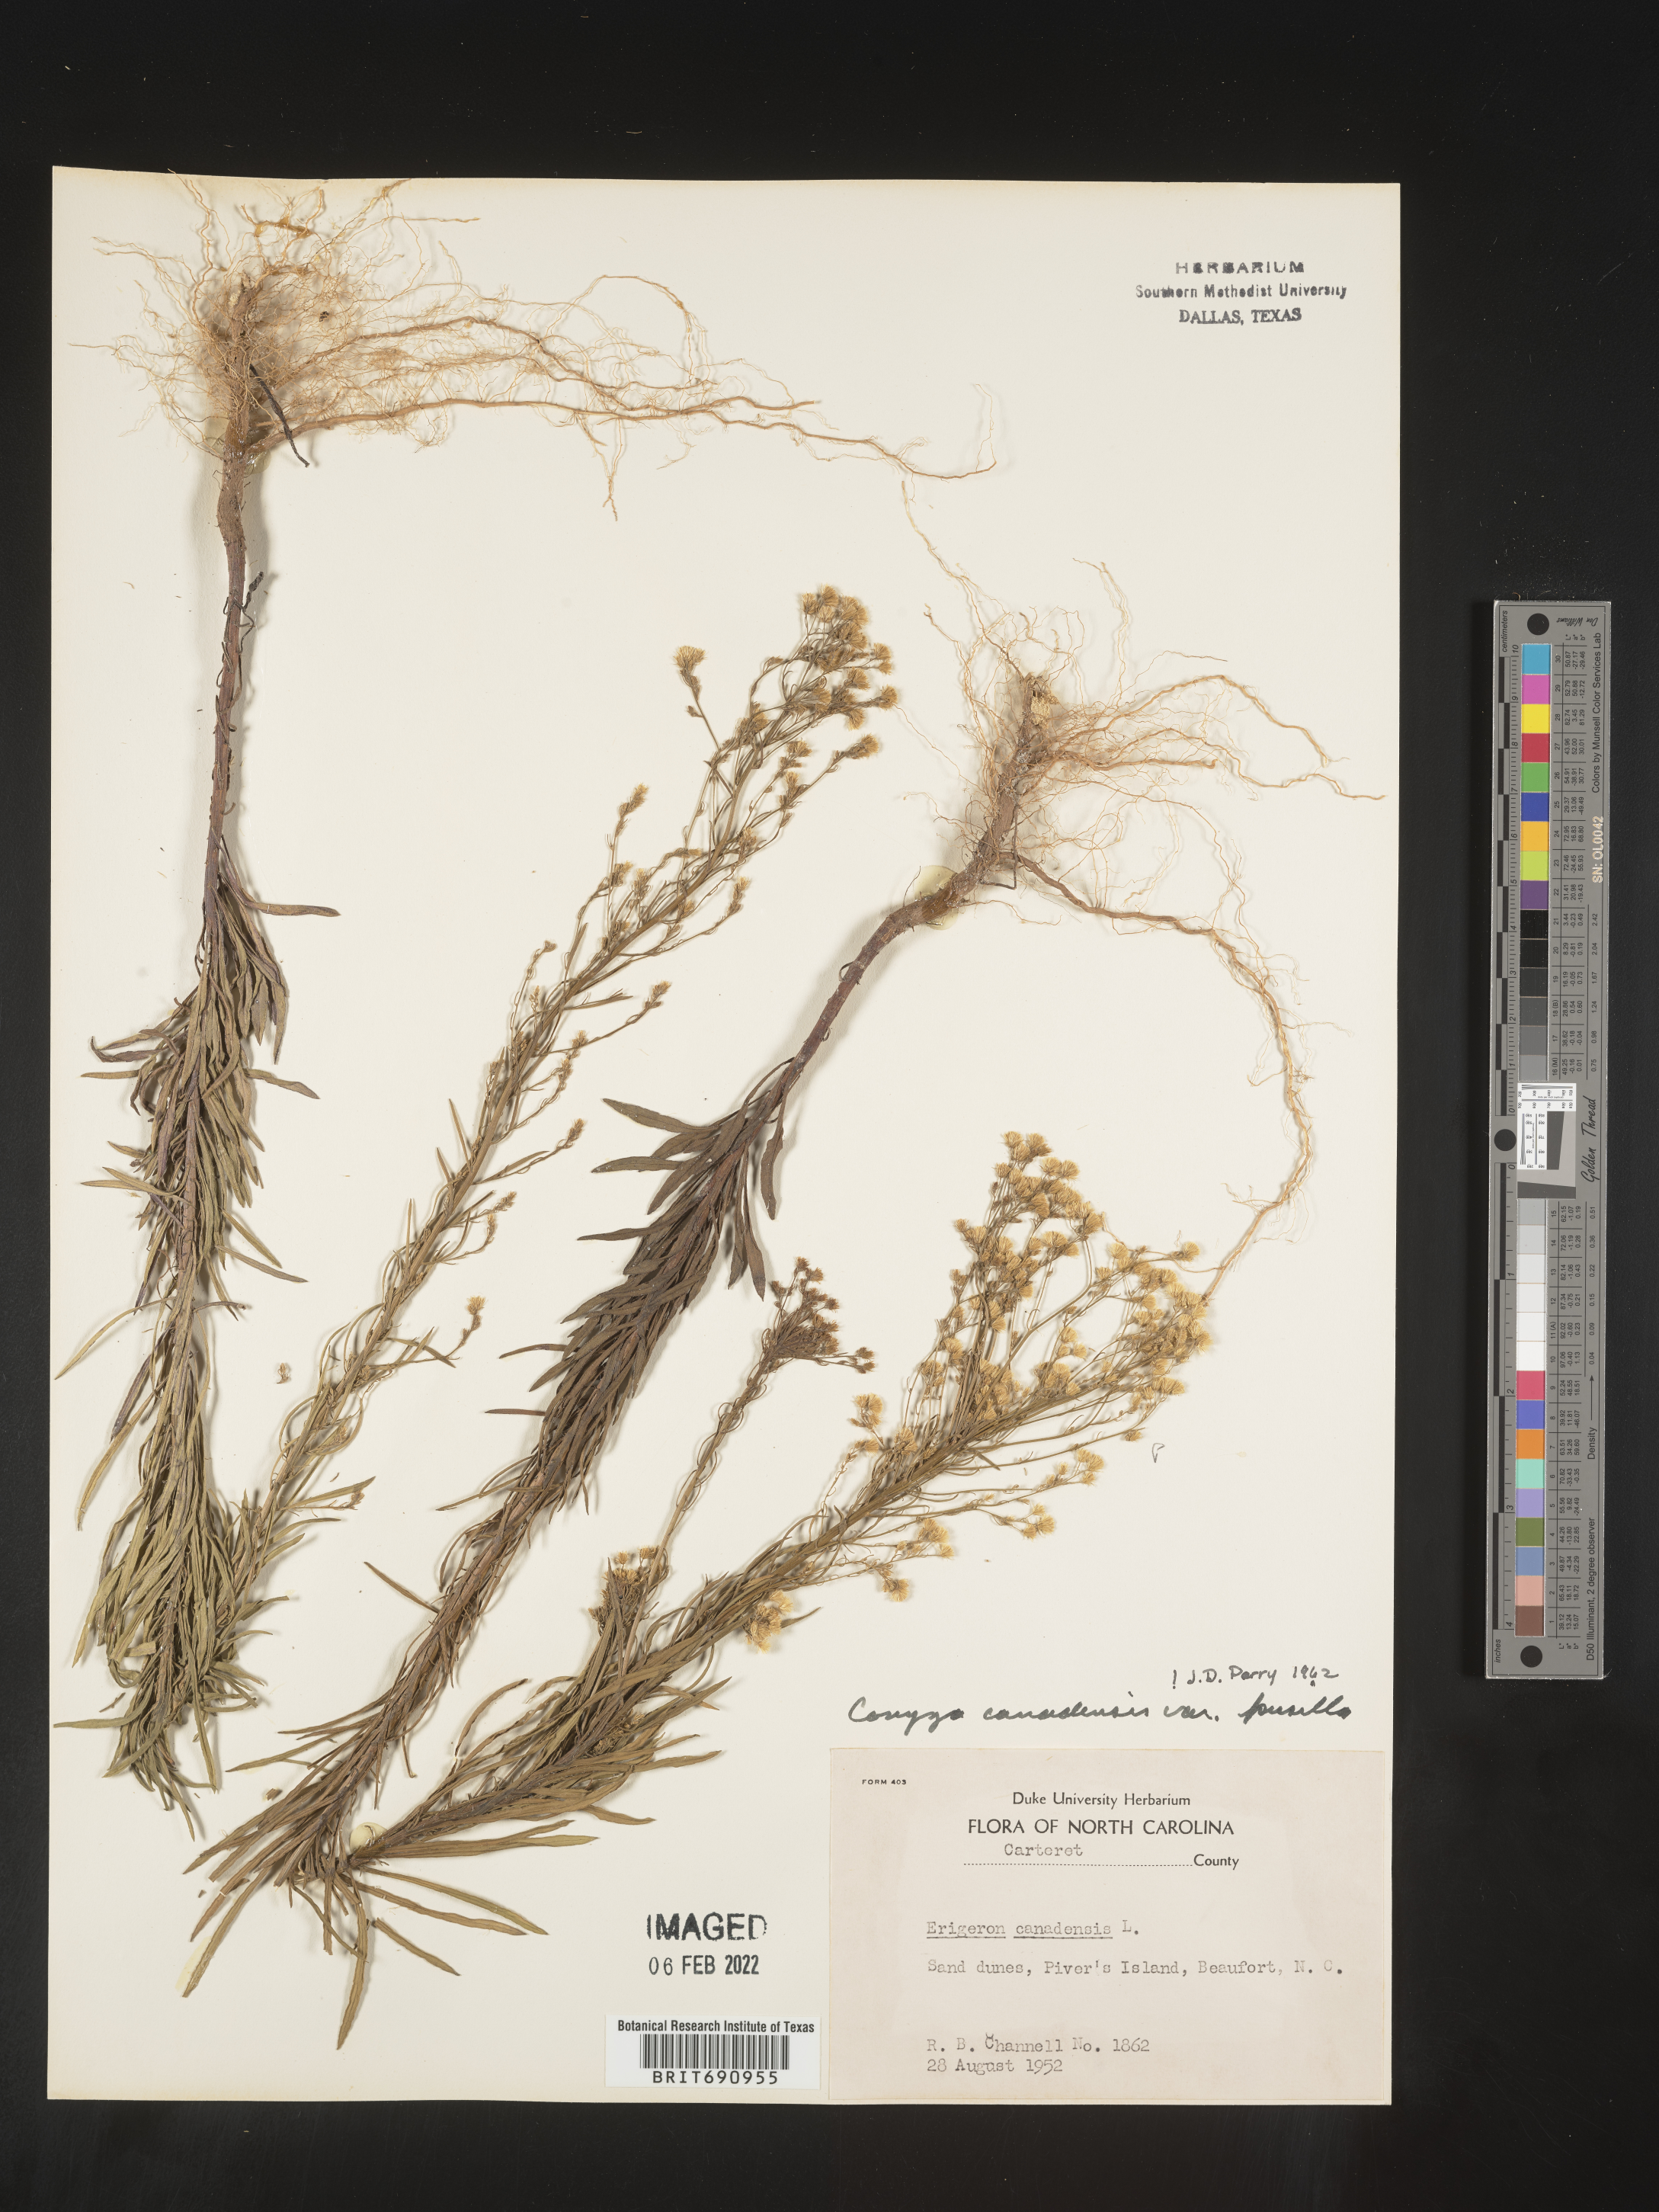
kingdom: Plantae
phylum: Tracheophyta
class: Magnoliopsida
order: Asterales
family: Asteraceae
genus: Erigeron
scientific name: Erigeron canadensis
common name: Canadian fleabane
